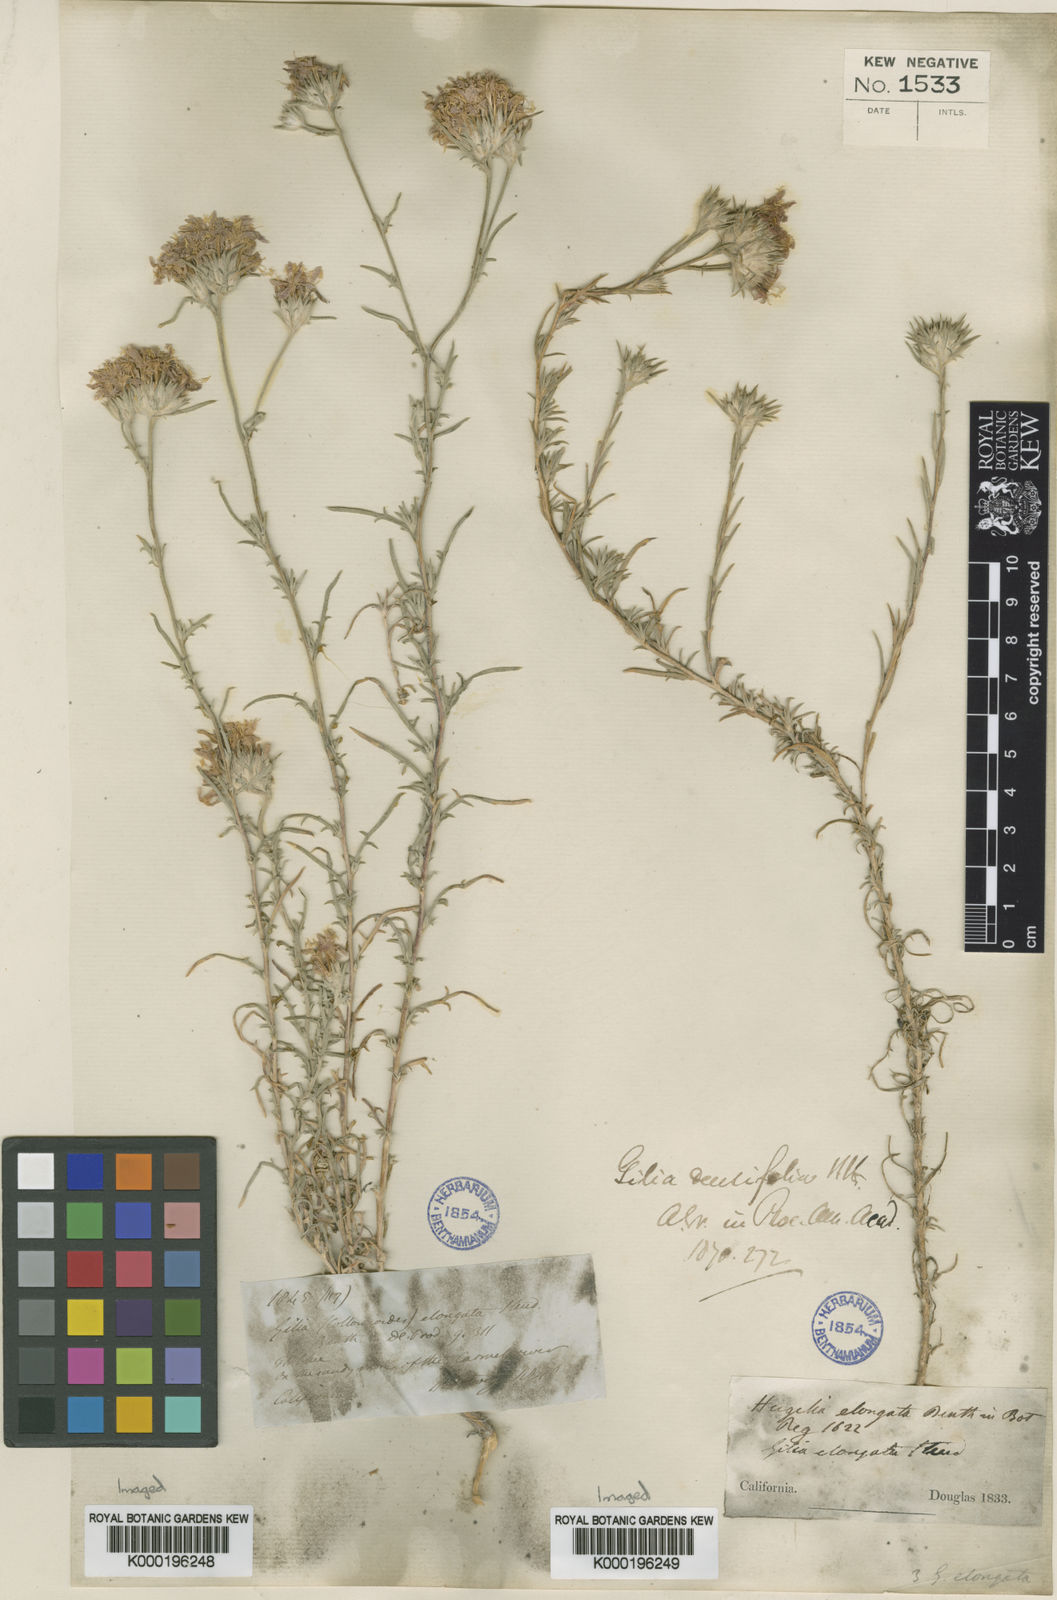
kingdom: Plantae
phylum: Tracheophyta
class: Magnoliopsida
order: Ericales
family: Polemoniaceae
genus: Eriastrum
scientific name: Eriastrum densifolium
